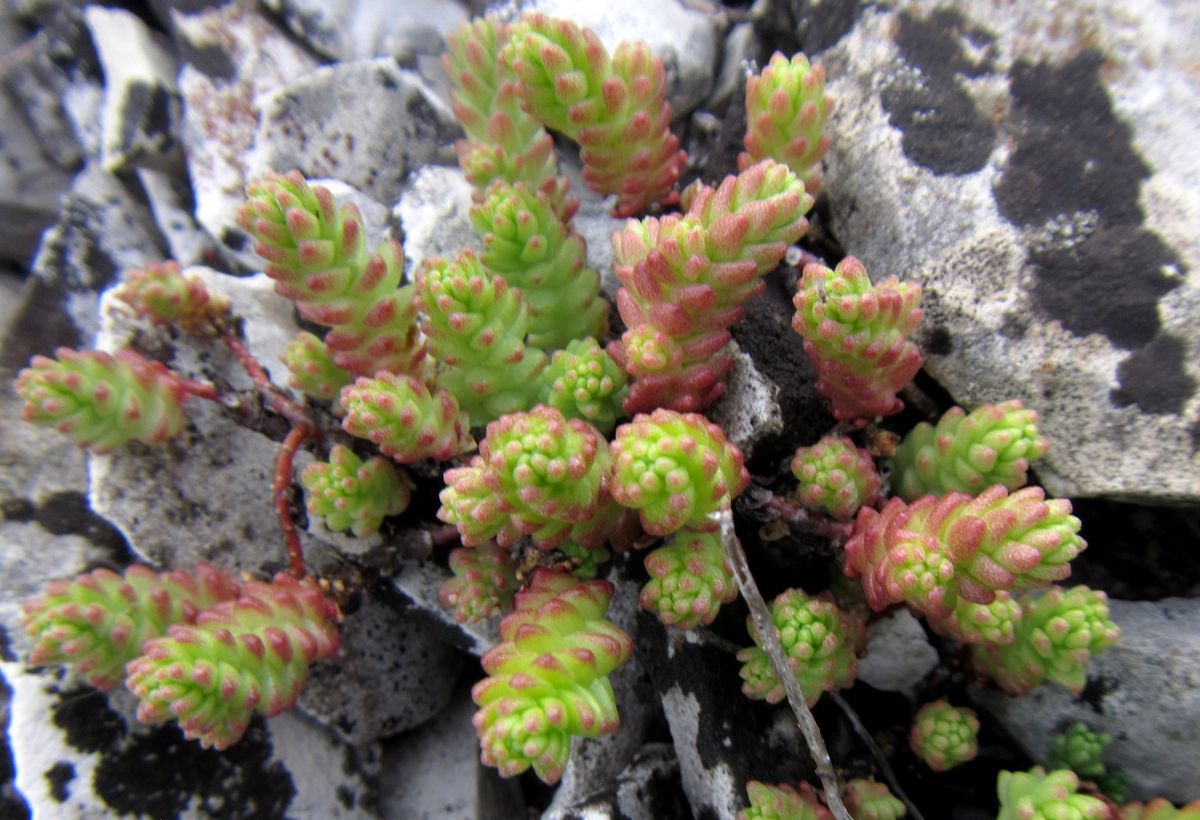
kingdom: Plantae
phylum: Tracheophyta
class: Magnoliopsida
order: Saxifragales
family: Crassulaceae
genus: Sedum
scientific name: Sedum hispanicum
